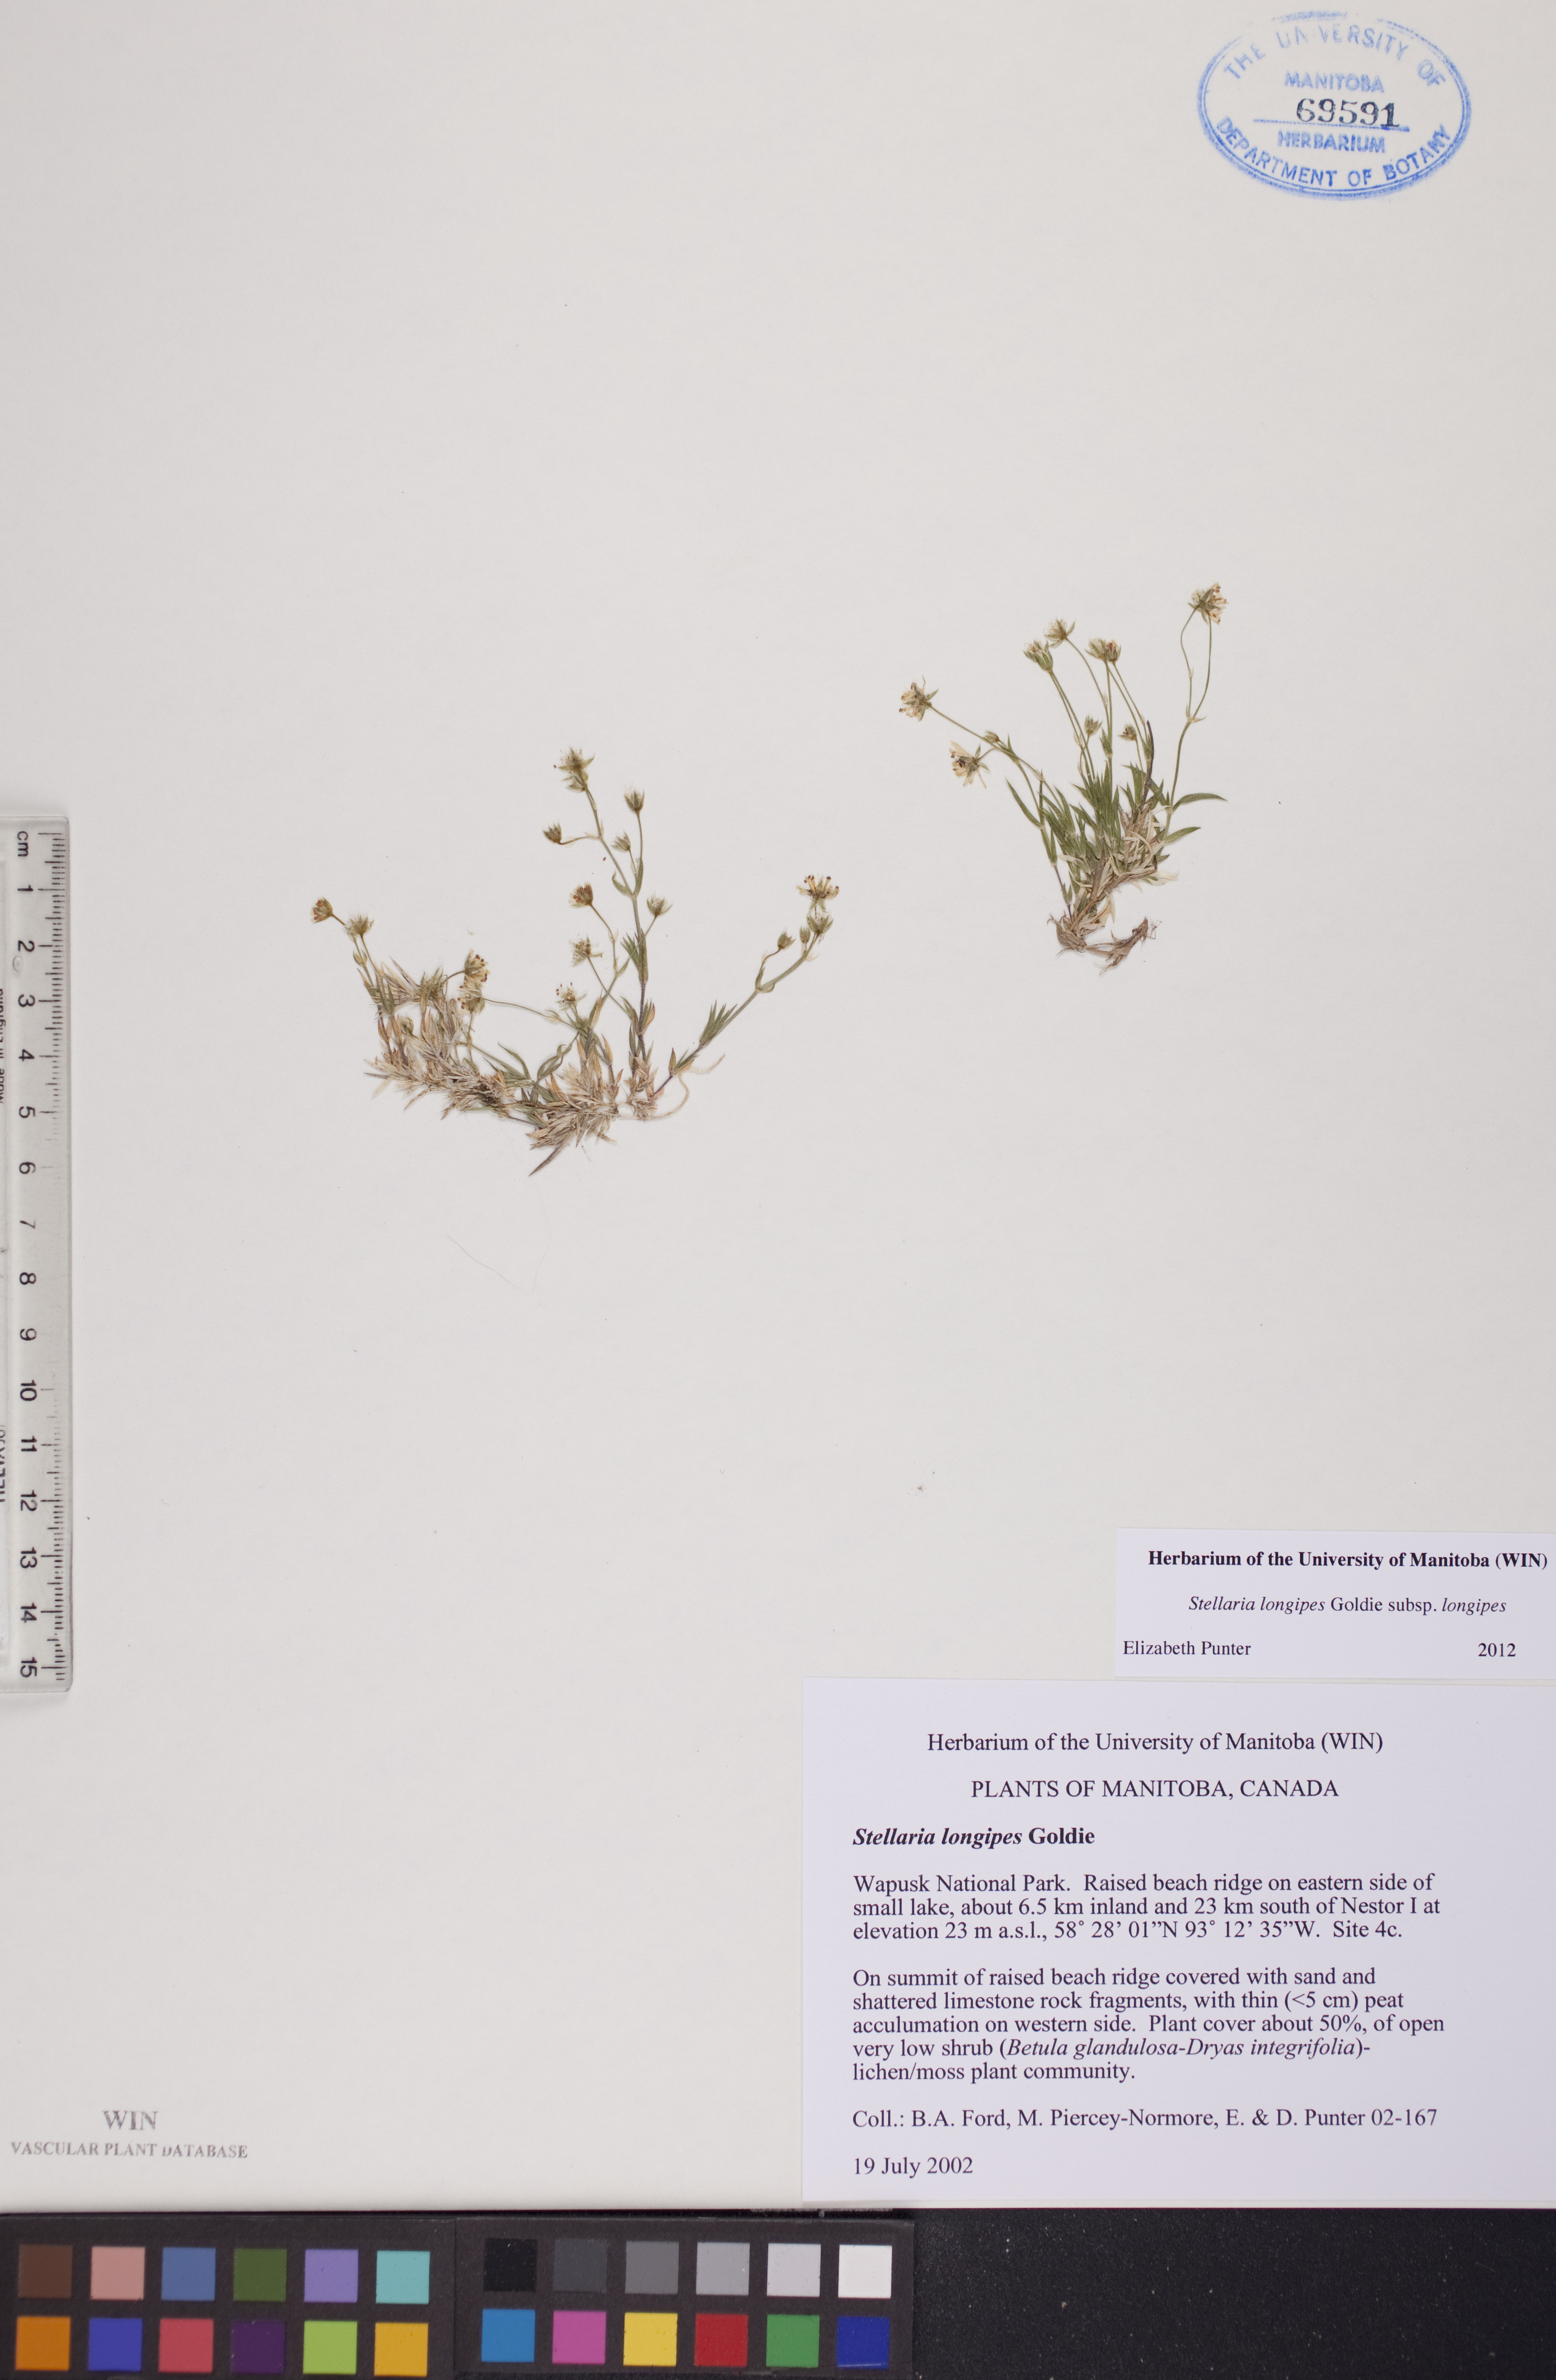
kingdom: Plantae
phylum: Tracheophyta
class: Magnoliopsida
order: Caryophyllales
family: Caryophyllaceae
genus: Stellaria
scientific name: Stellaria longipes
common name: Goldie's starwort
